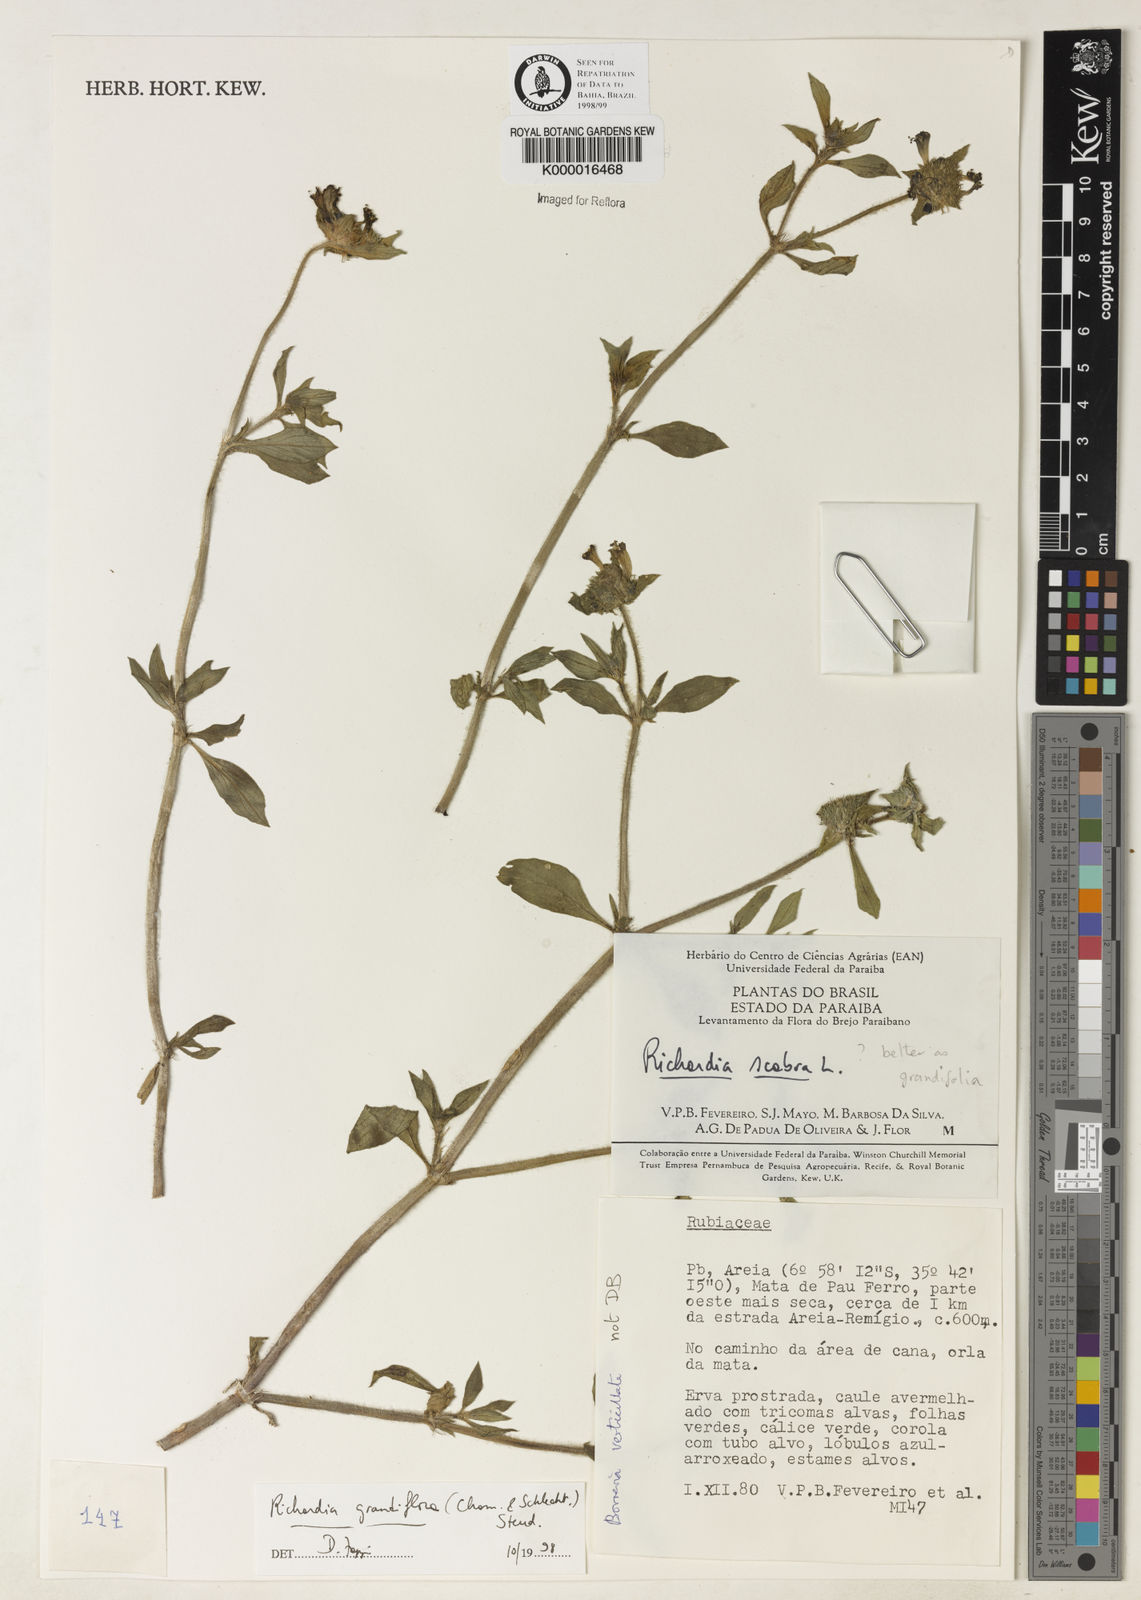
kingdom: Plantae
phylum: Tracheophyta
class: Magnoliopsida
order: Gentianales
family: Rubiaceae
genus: Richardia
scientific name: Richardia grandiflora
